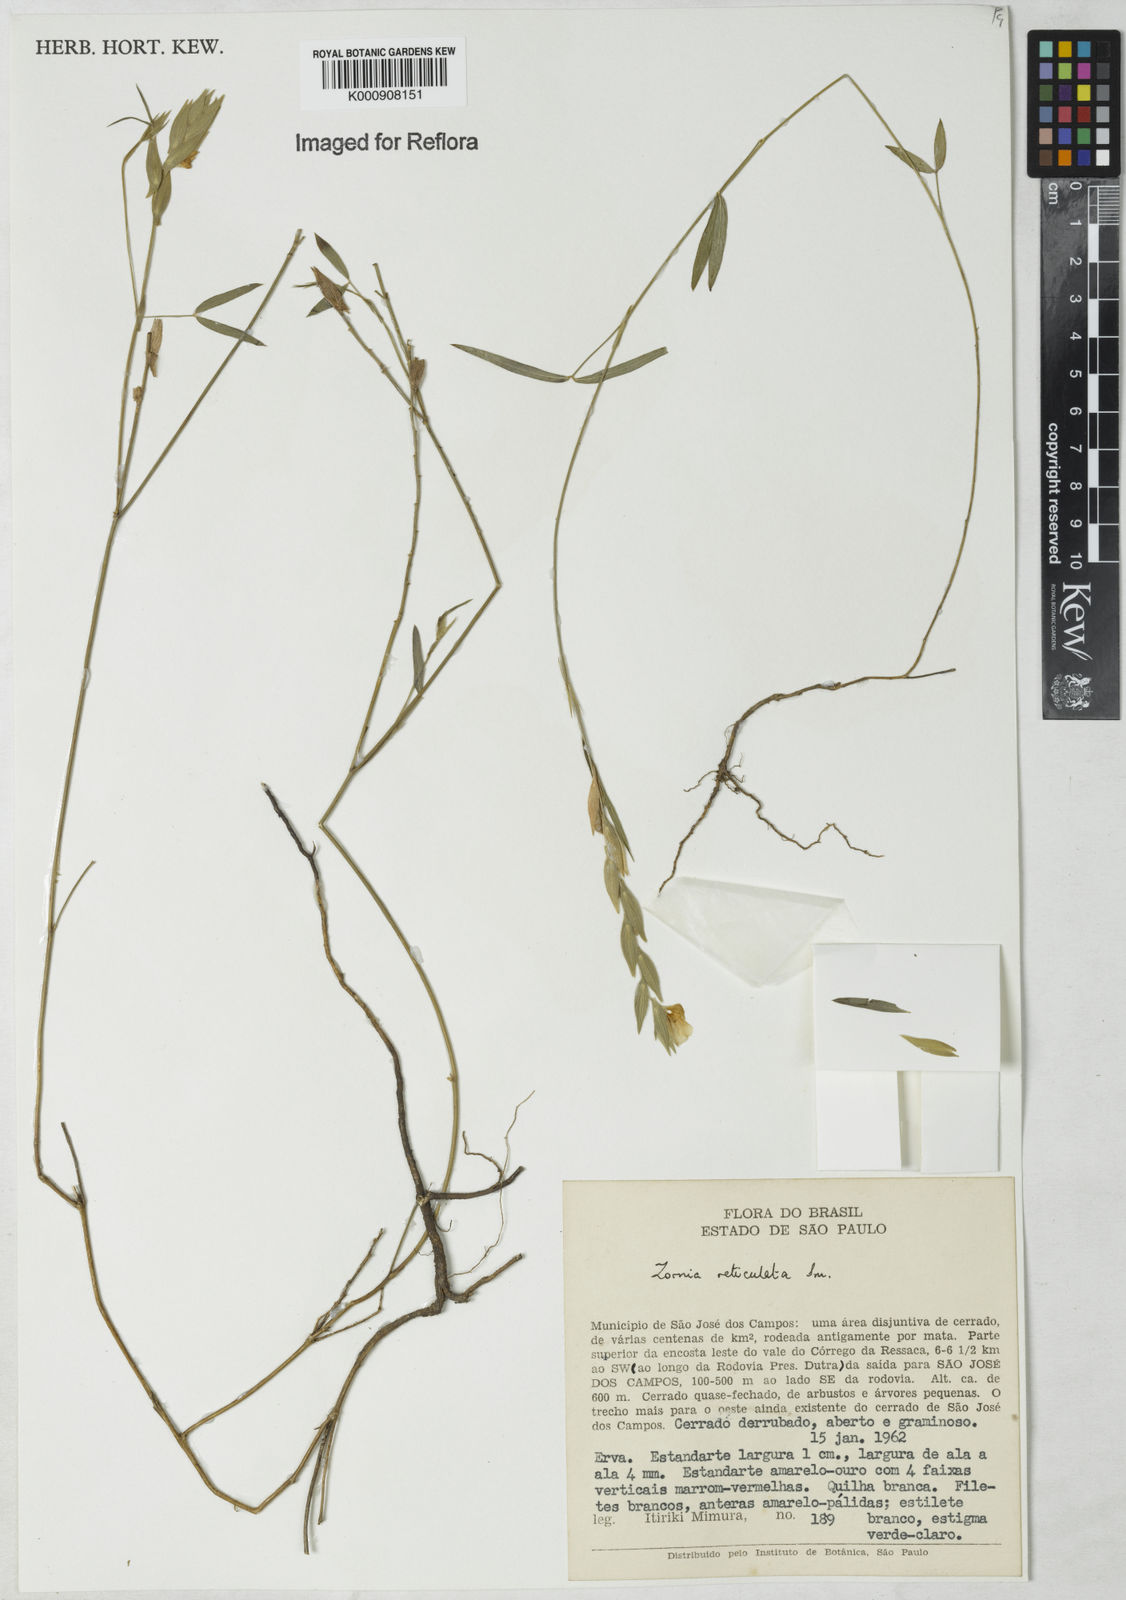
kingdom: Plantae
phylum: Tracheophyta
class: Magnoliopsida
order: Fabales
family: Fabaceae
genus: Zornia
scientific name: Zornia reticulata
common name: Reticulate viperina
